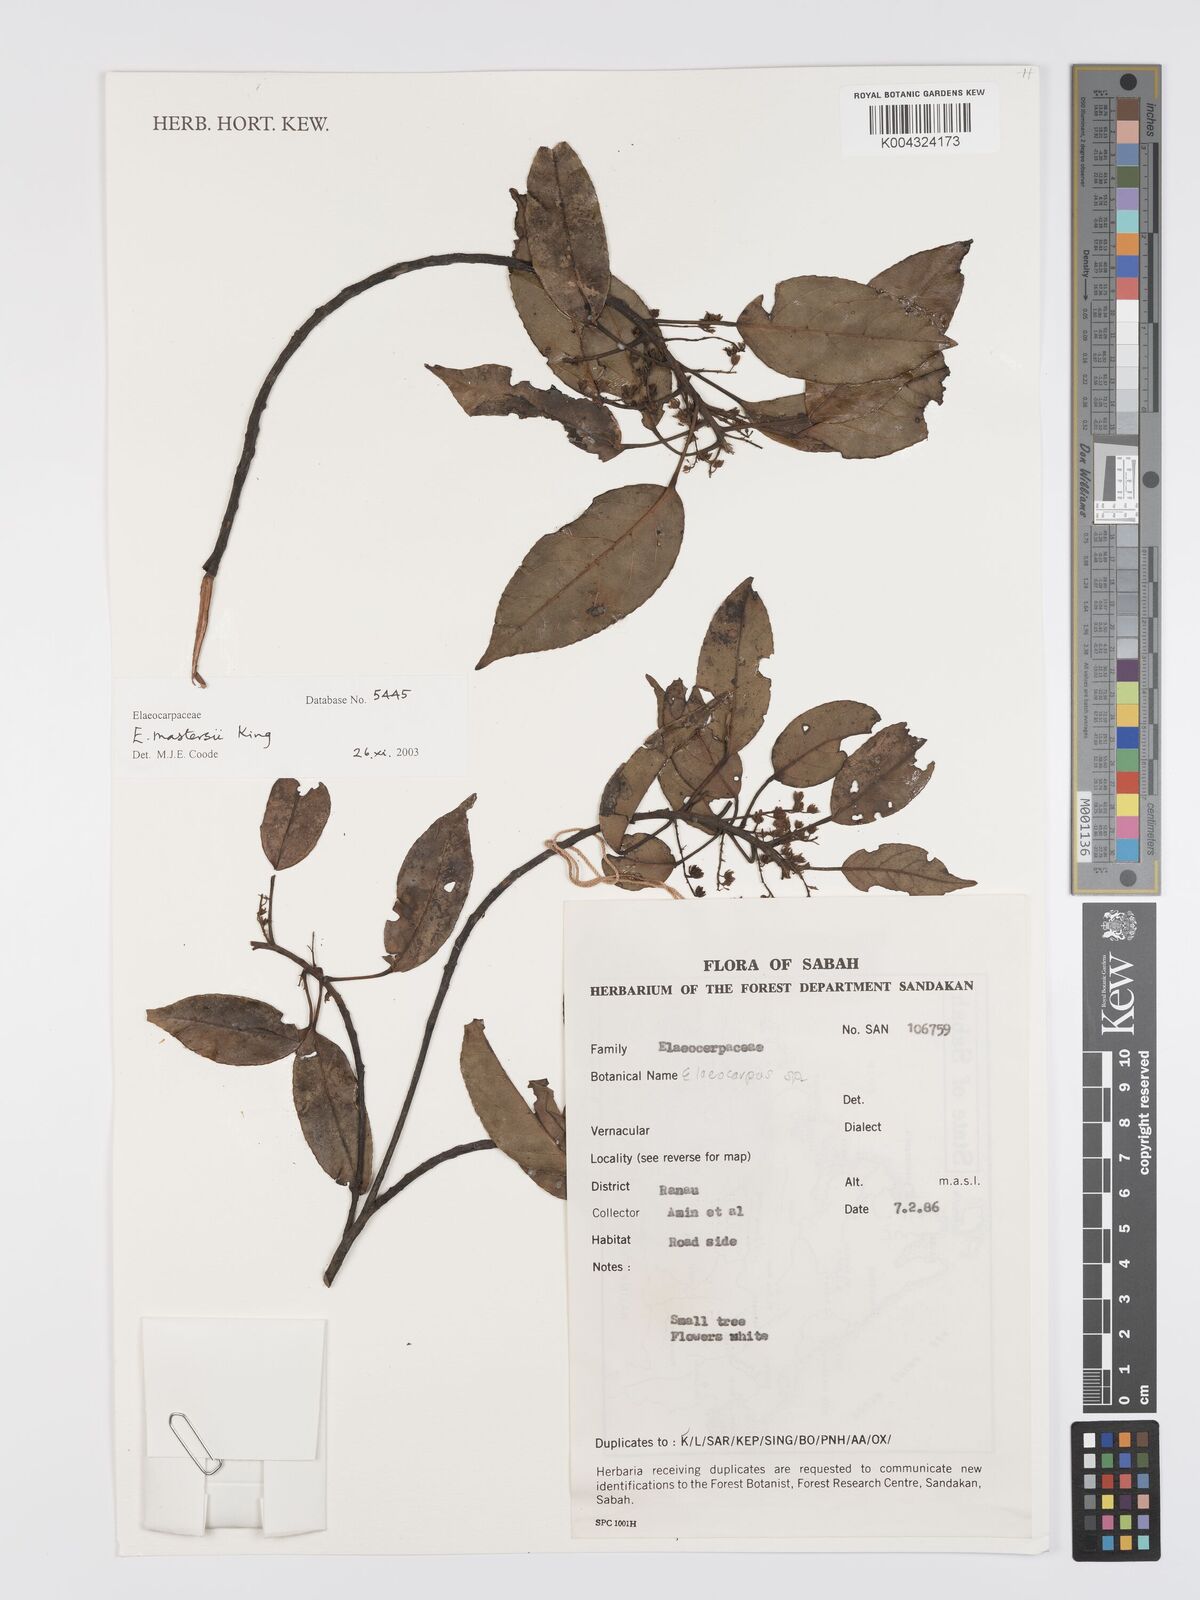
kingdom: Plantae
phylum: Tracheophyta
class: Magnoliopsida
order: Oxalidales
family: Elaeocarpaceae
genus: Elaeocarpus
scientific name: Elaeocarpus mastersii
